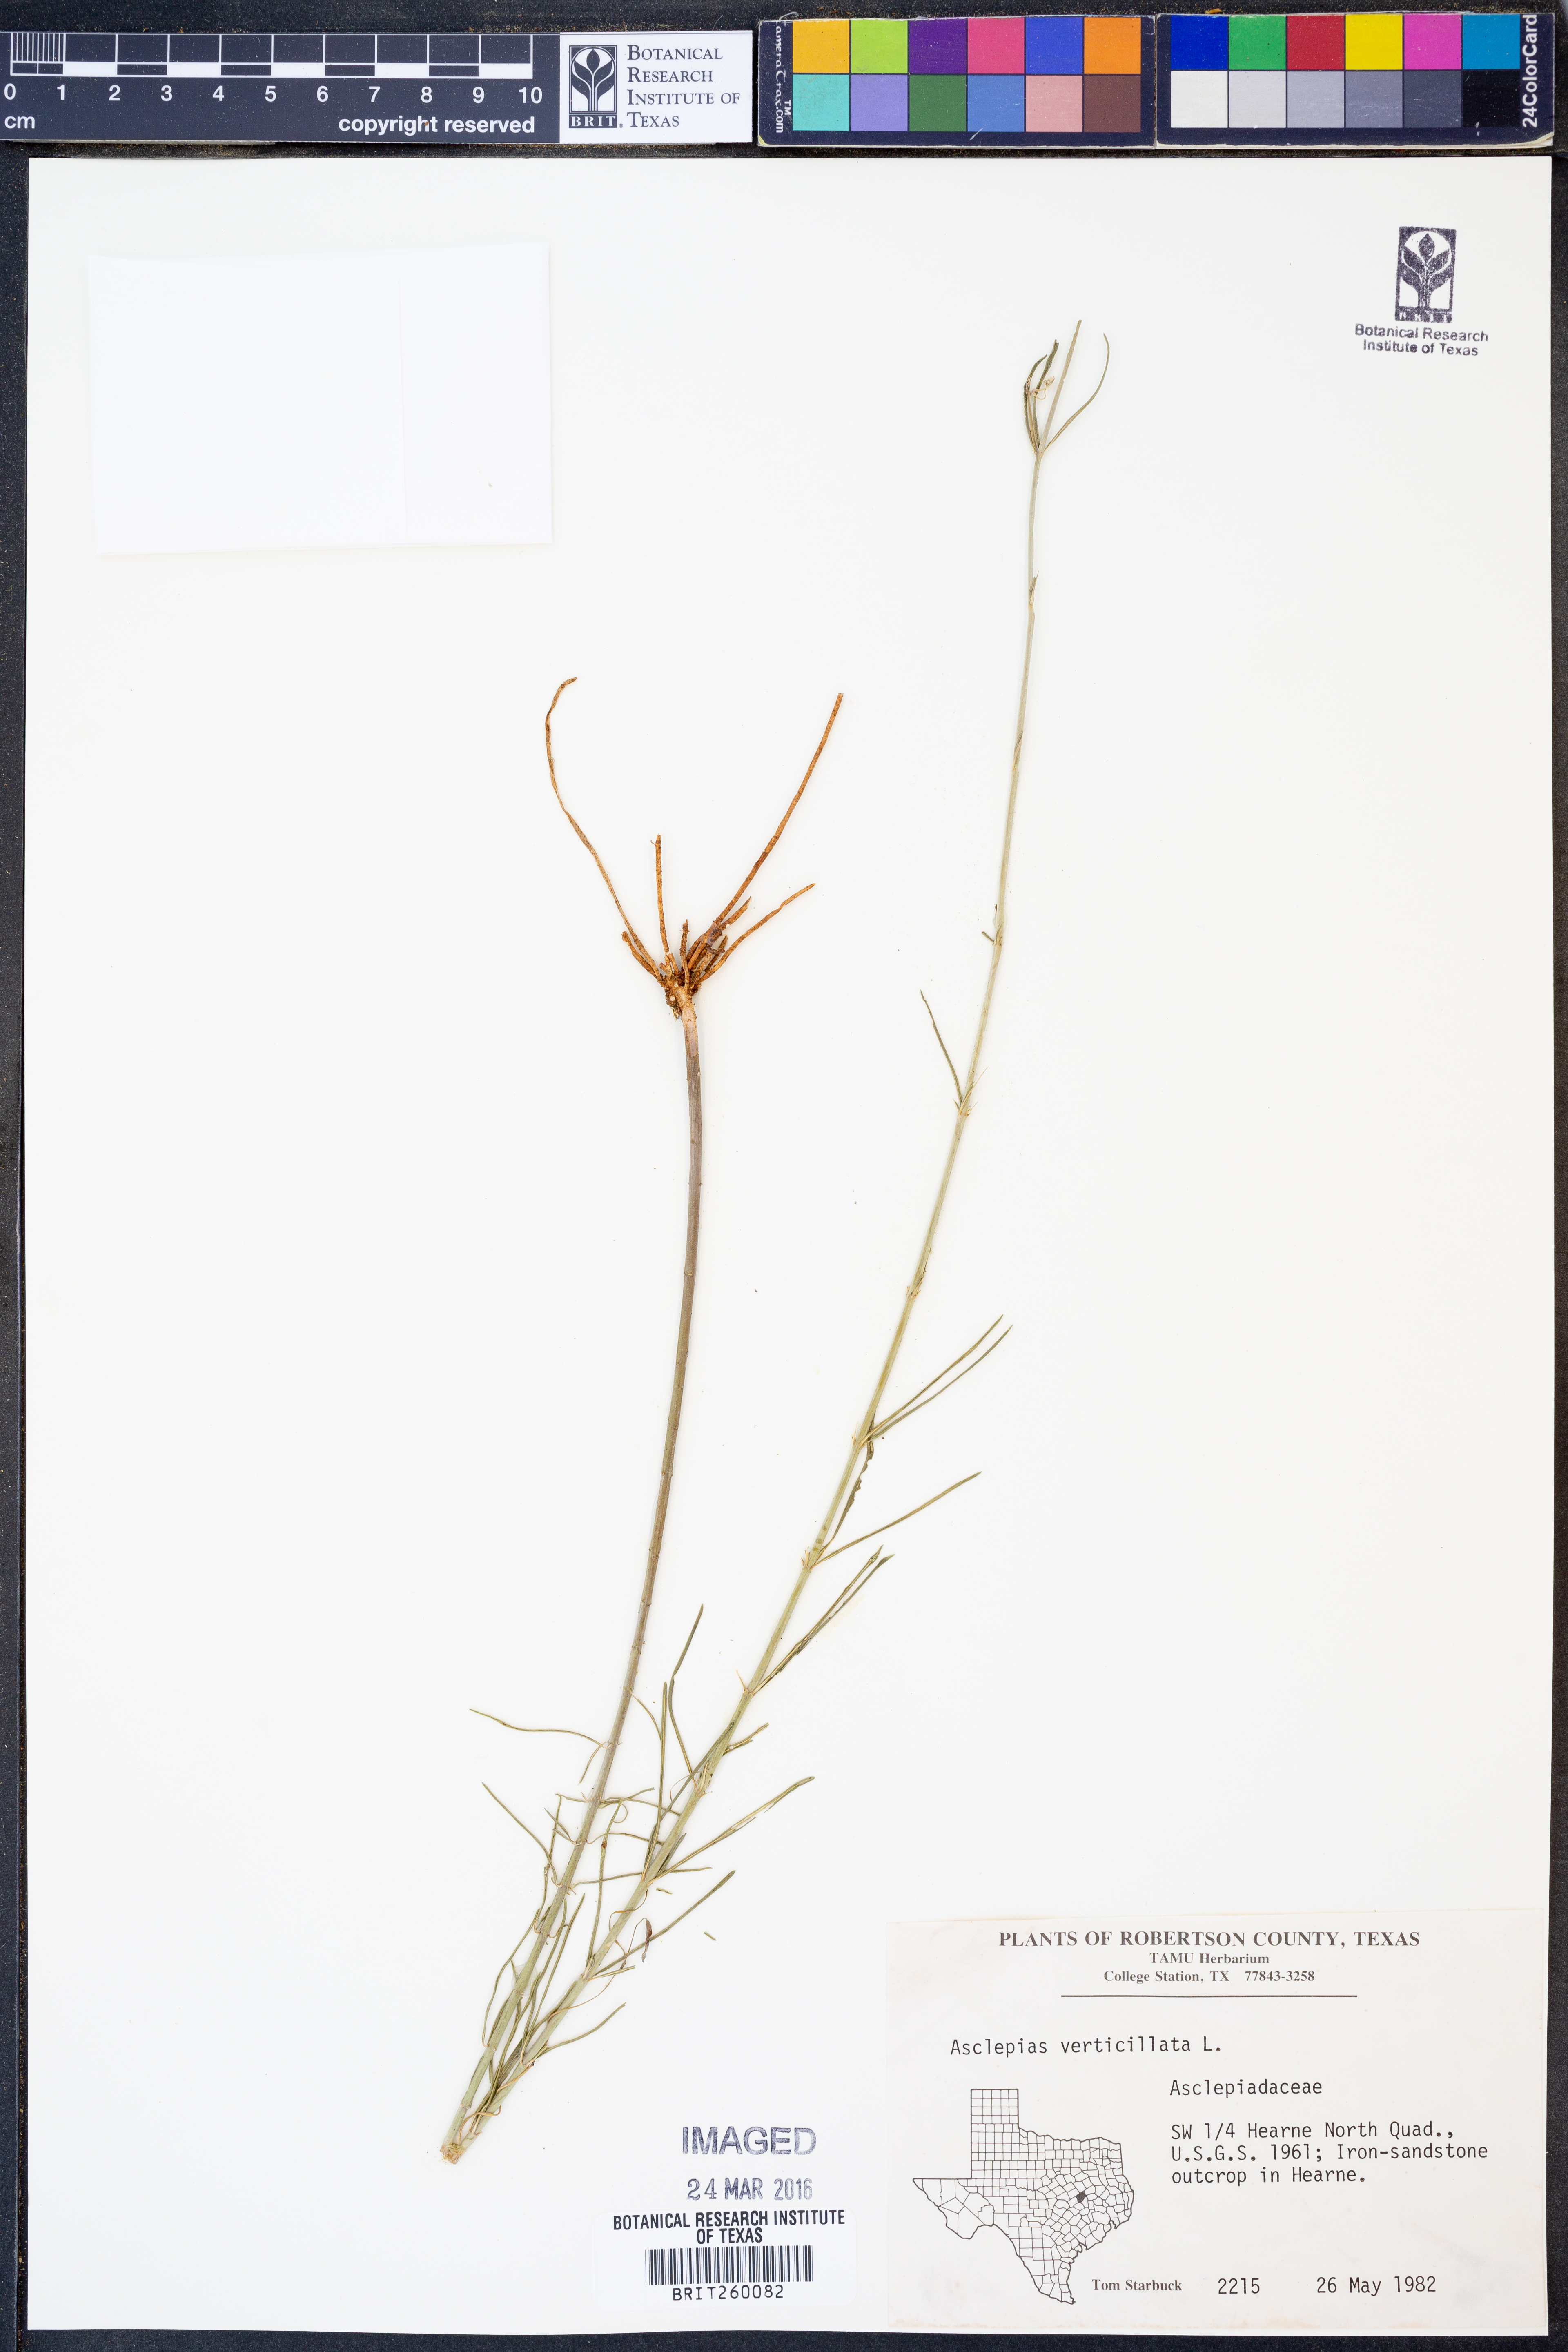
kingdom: Plantae
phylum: Tracheophyta
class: Magnoliopsida
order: Gentianales
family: Apocynaceae
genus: Asclepias
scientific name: Asclepias verticillata
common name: Eastern whorled milkweed
